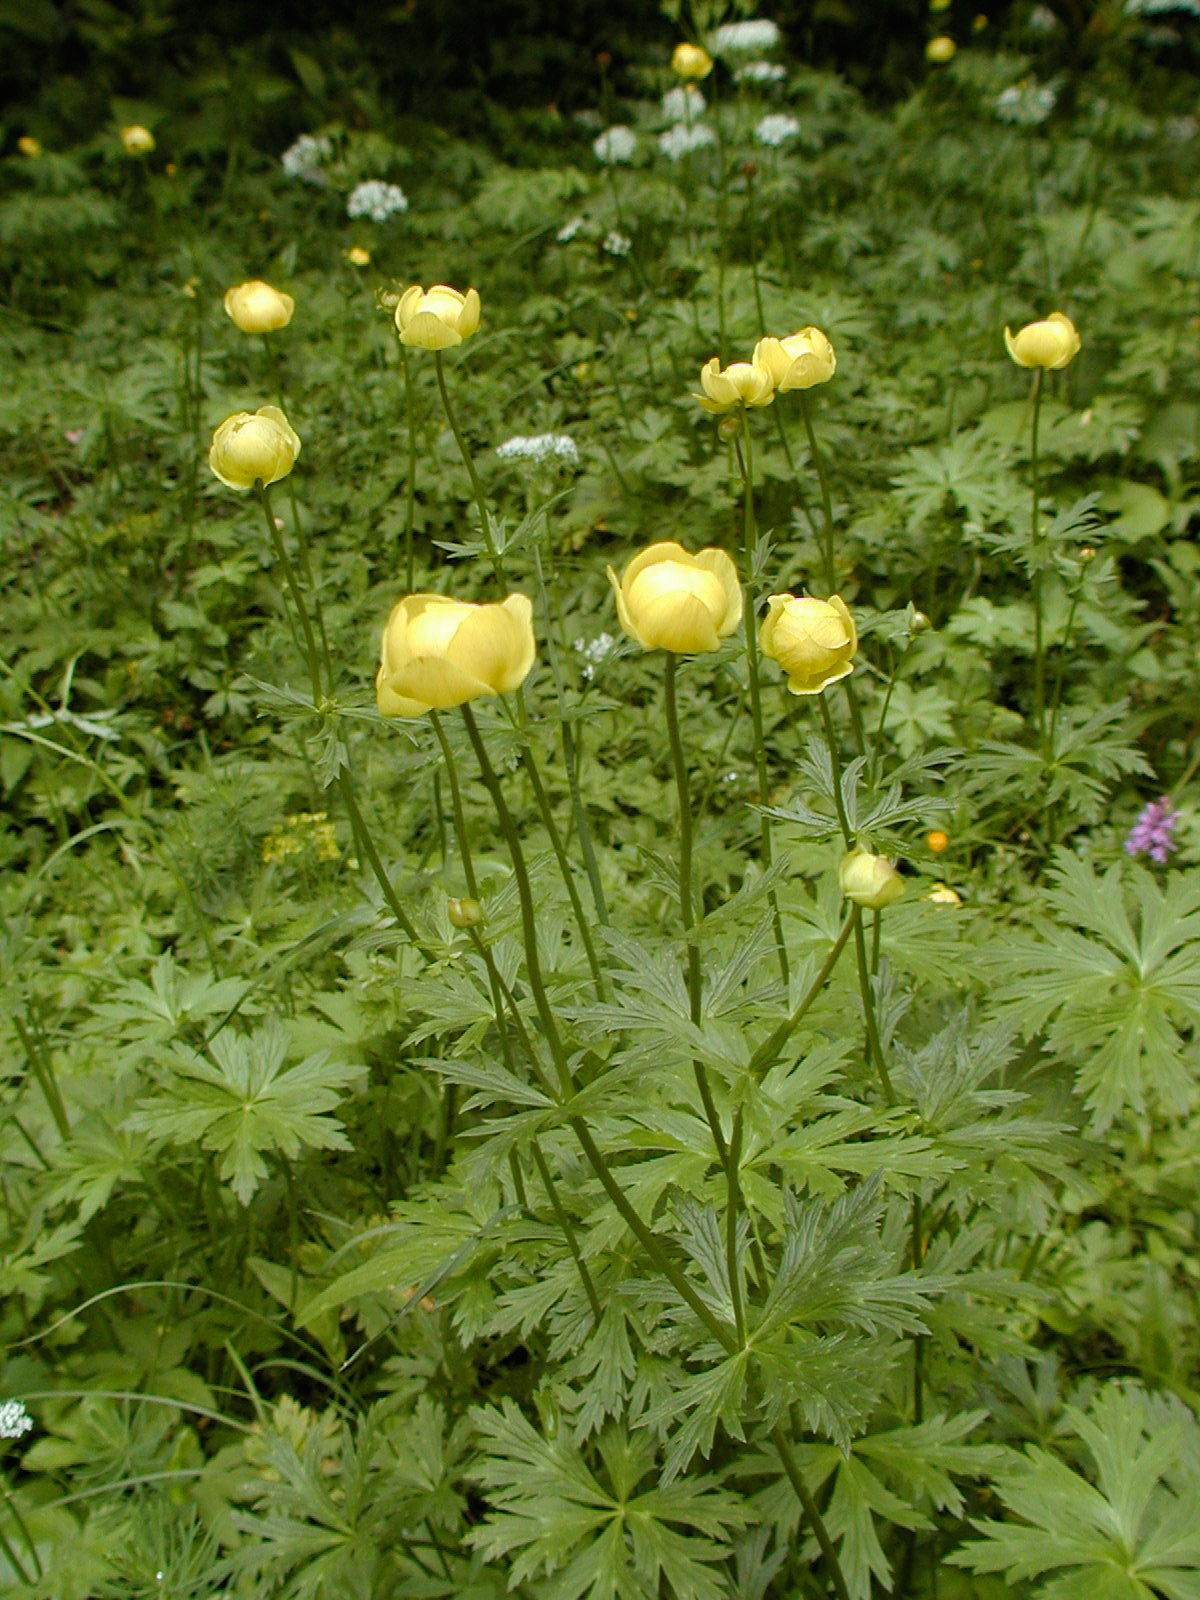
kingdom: Plantae
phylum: Tracheophyta
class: Magnoliopsida
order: Ranunculales
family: Ranunculaceae
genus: Trollius
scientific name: Trollius europaeus
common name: European globeflower
